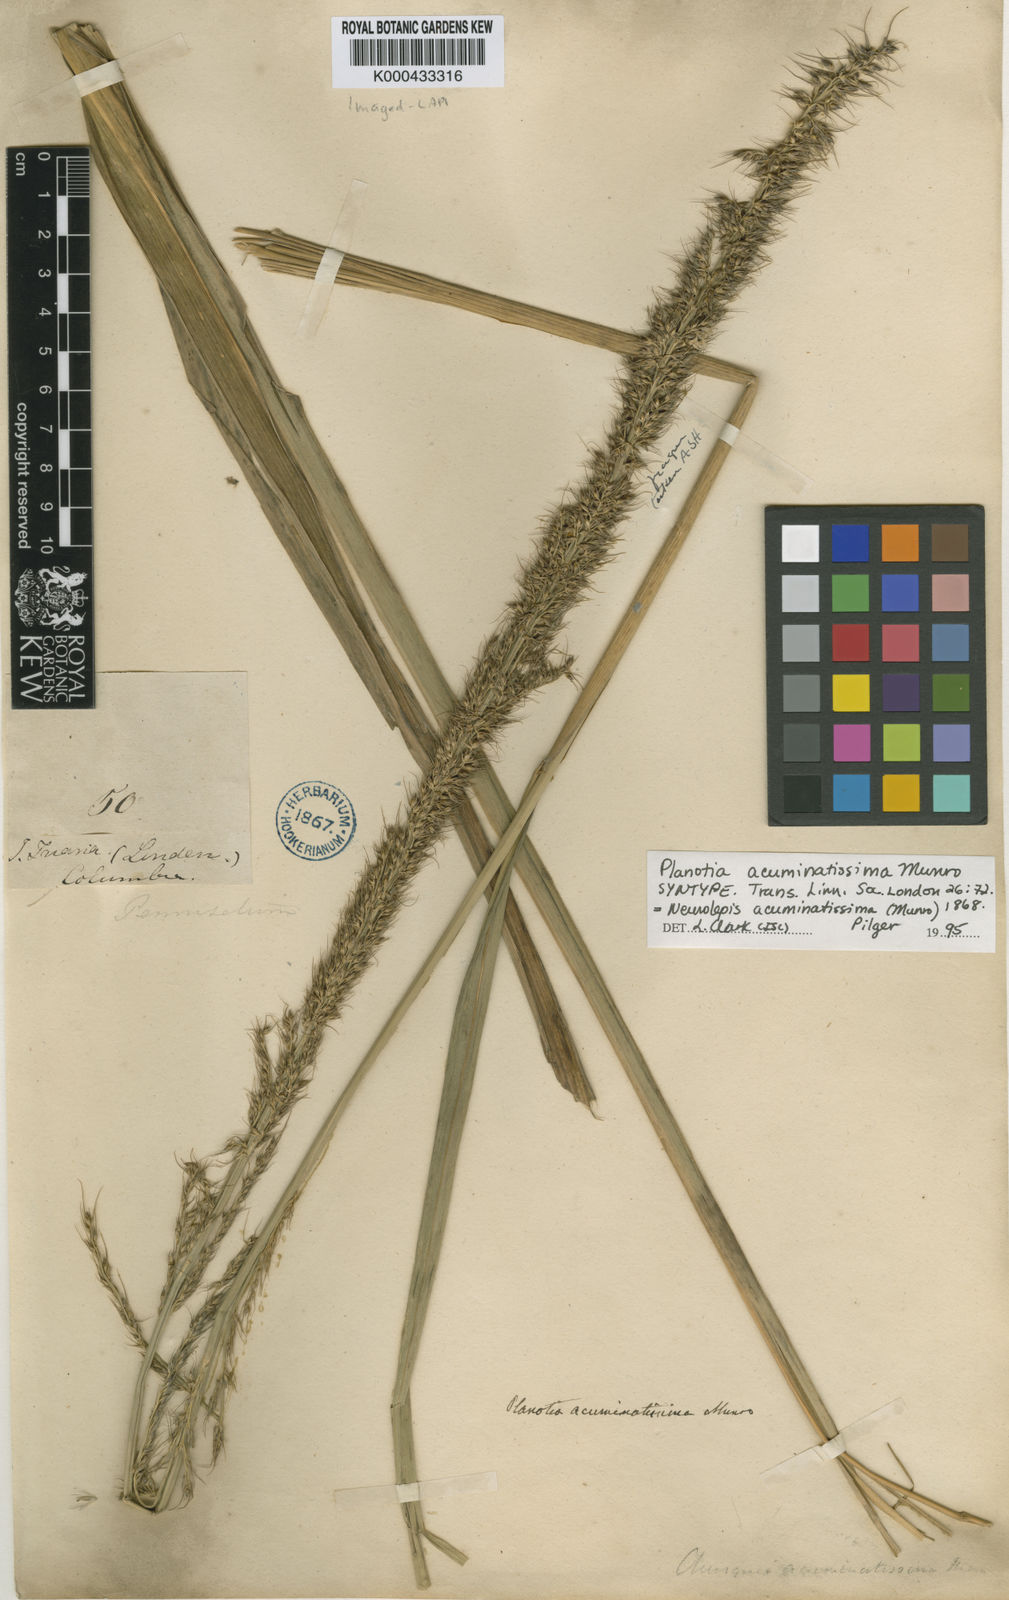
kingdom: Plantae
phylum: Tracheophyta
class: Liliopsida
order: Poales
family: Poaceae
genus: Chusquea
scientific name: Chusquea
